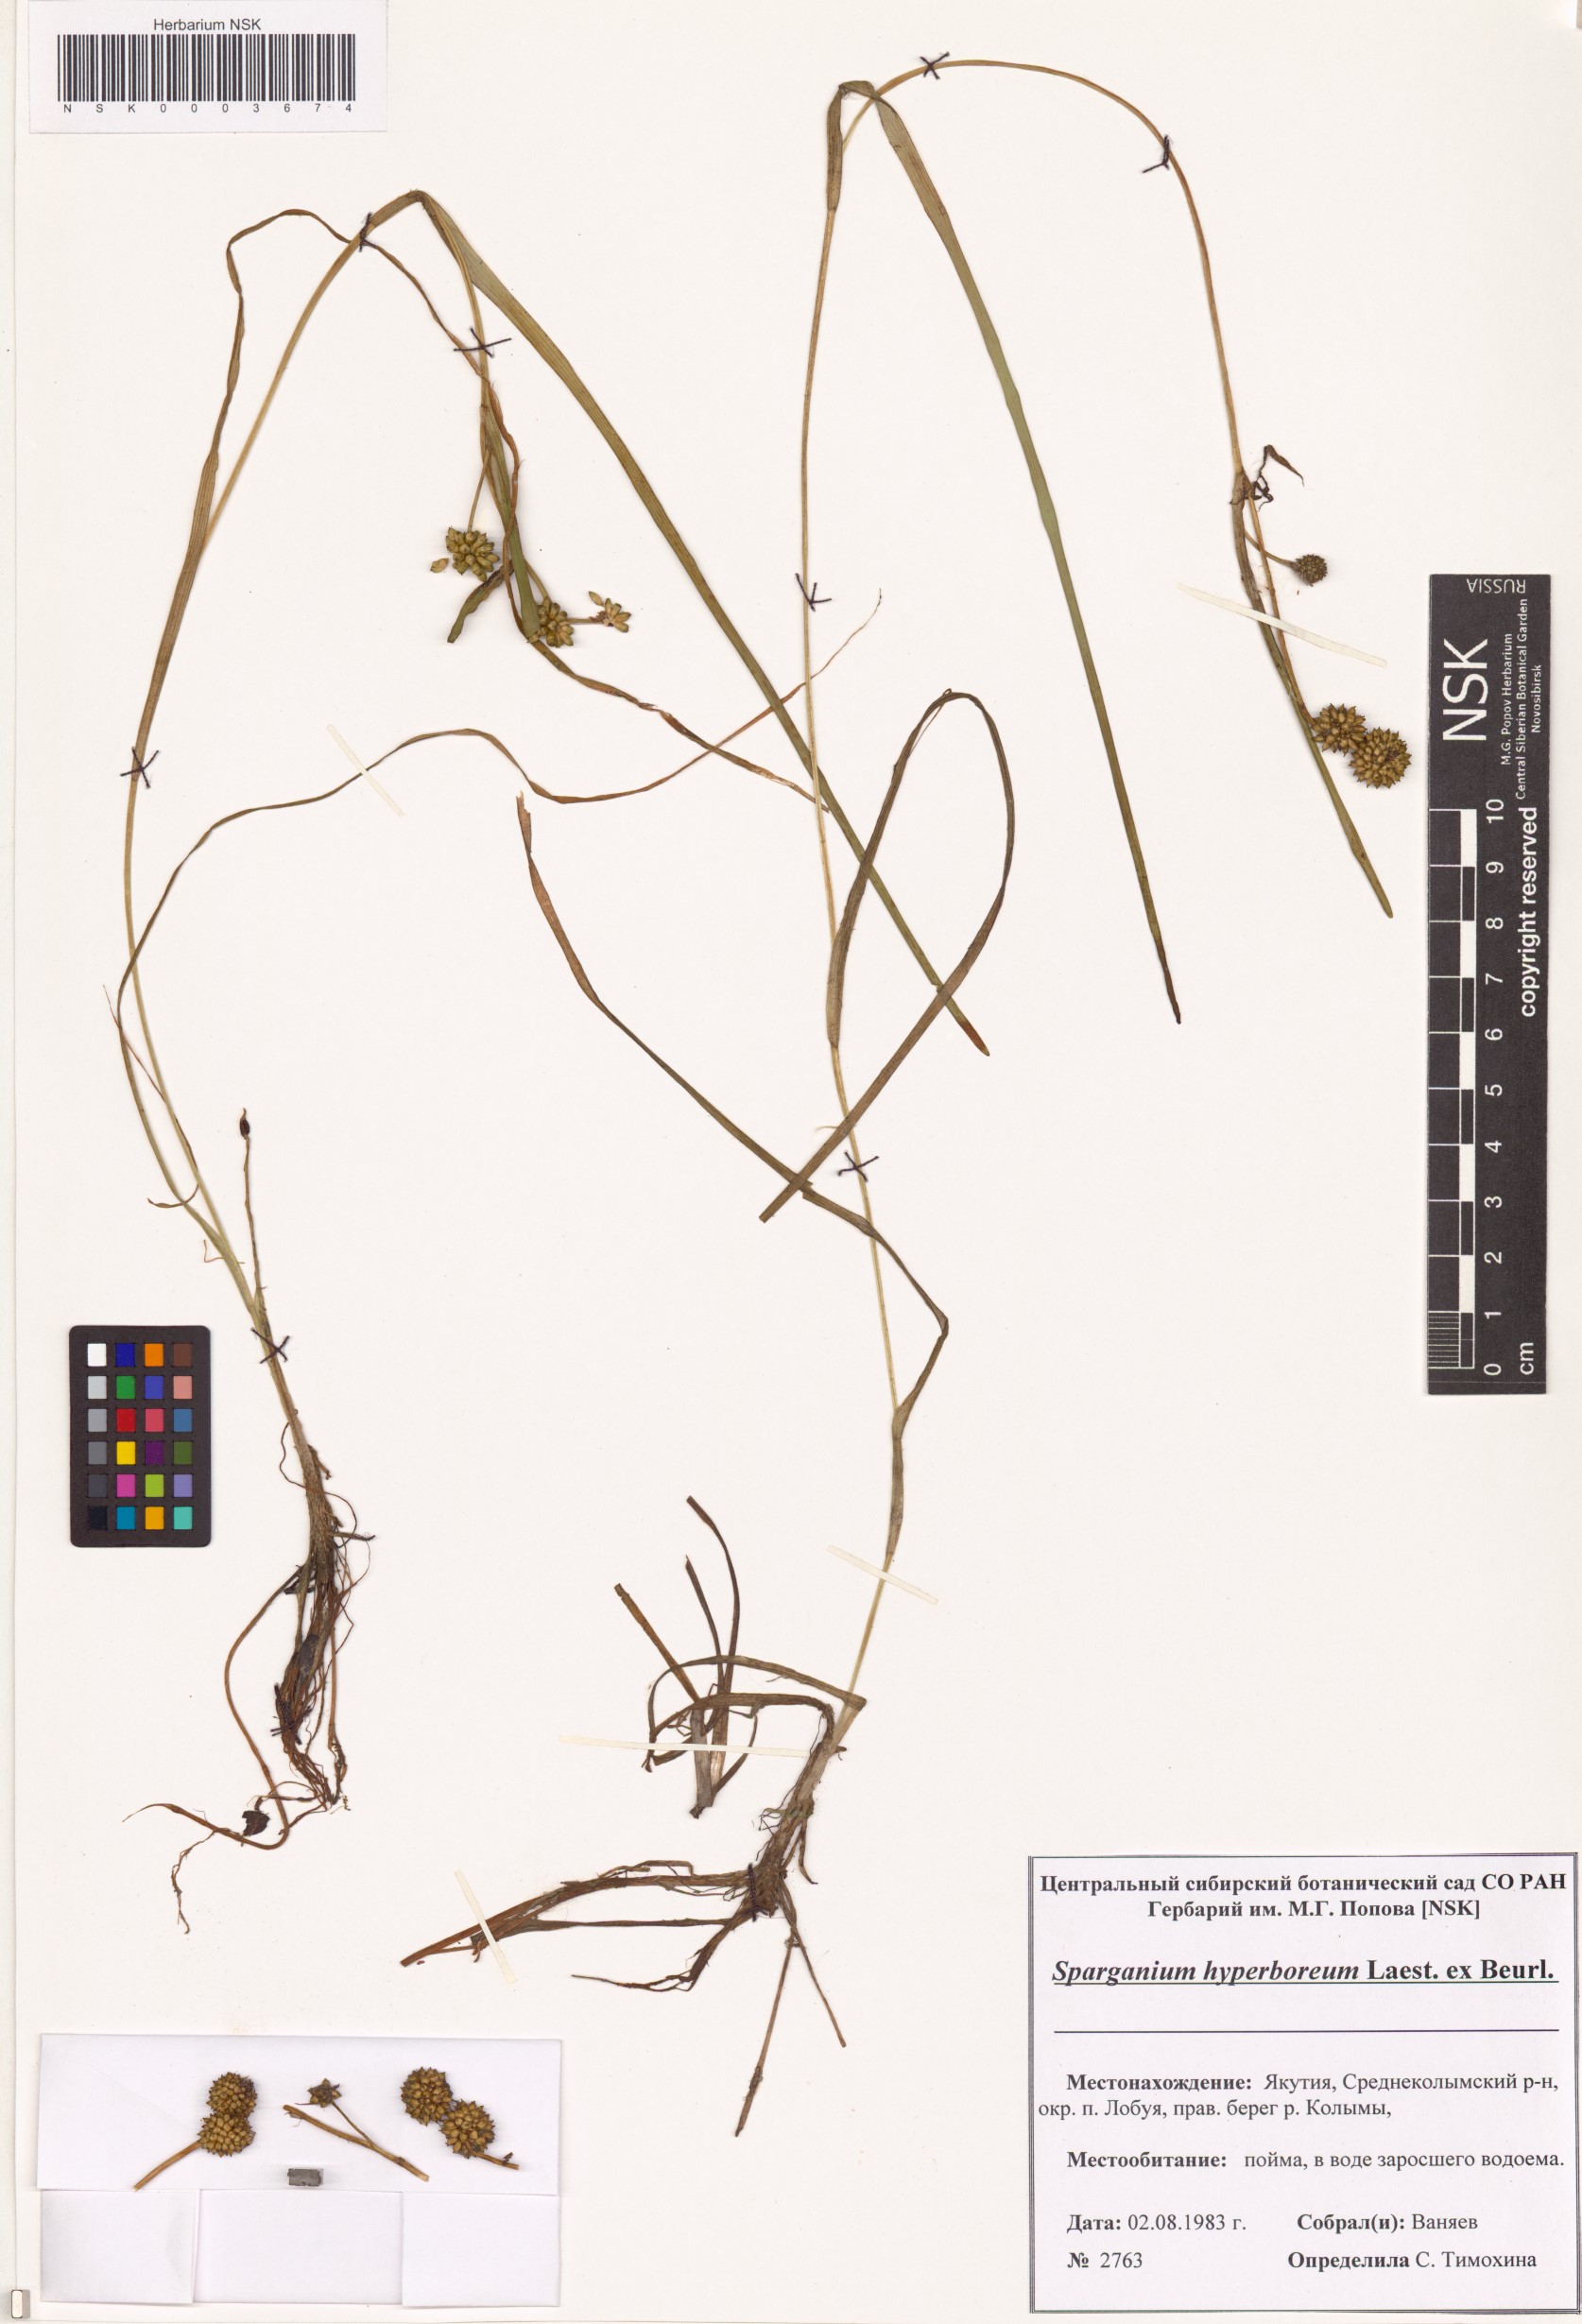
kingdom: Plantae
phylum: Tracheophyta
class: Liliopsida
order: Poales
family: Typhaceae
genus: Sparganium
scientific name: Sparganium hyperboreum
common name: Arctic burreed
